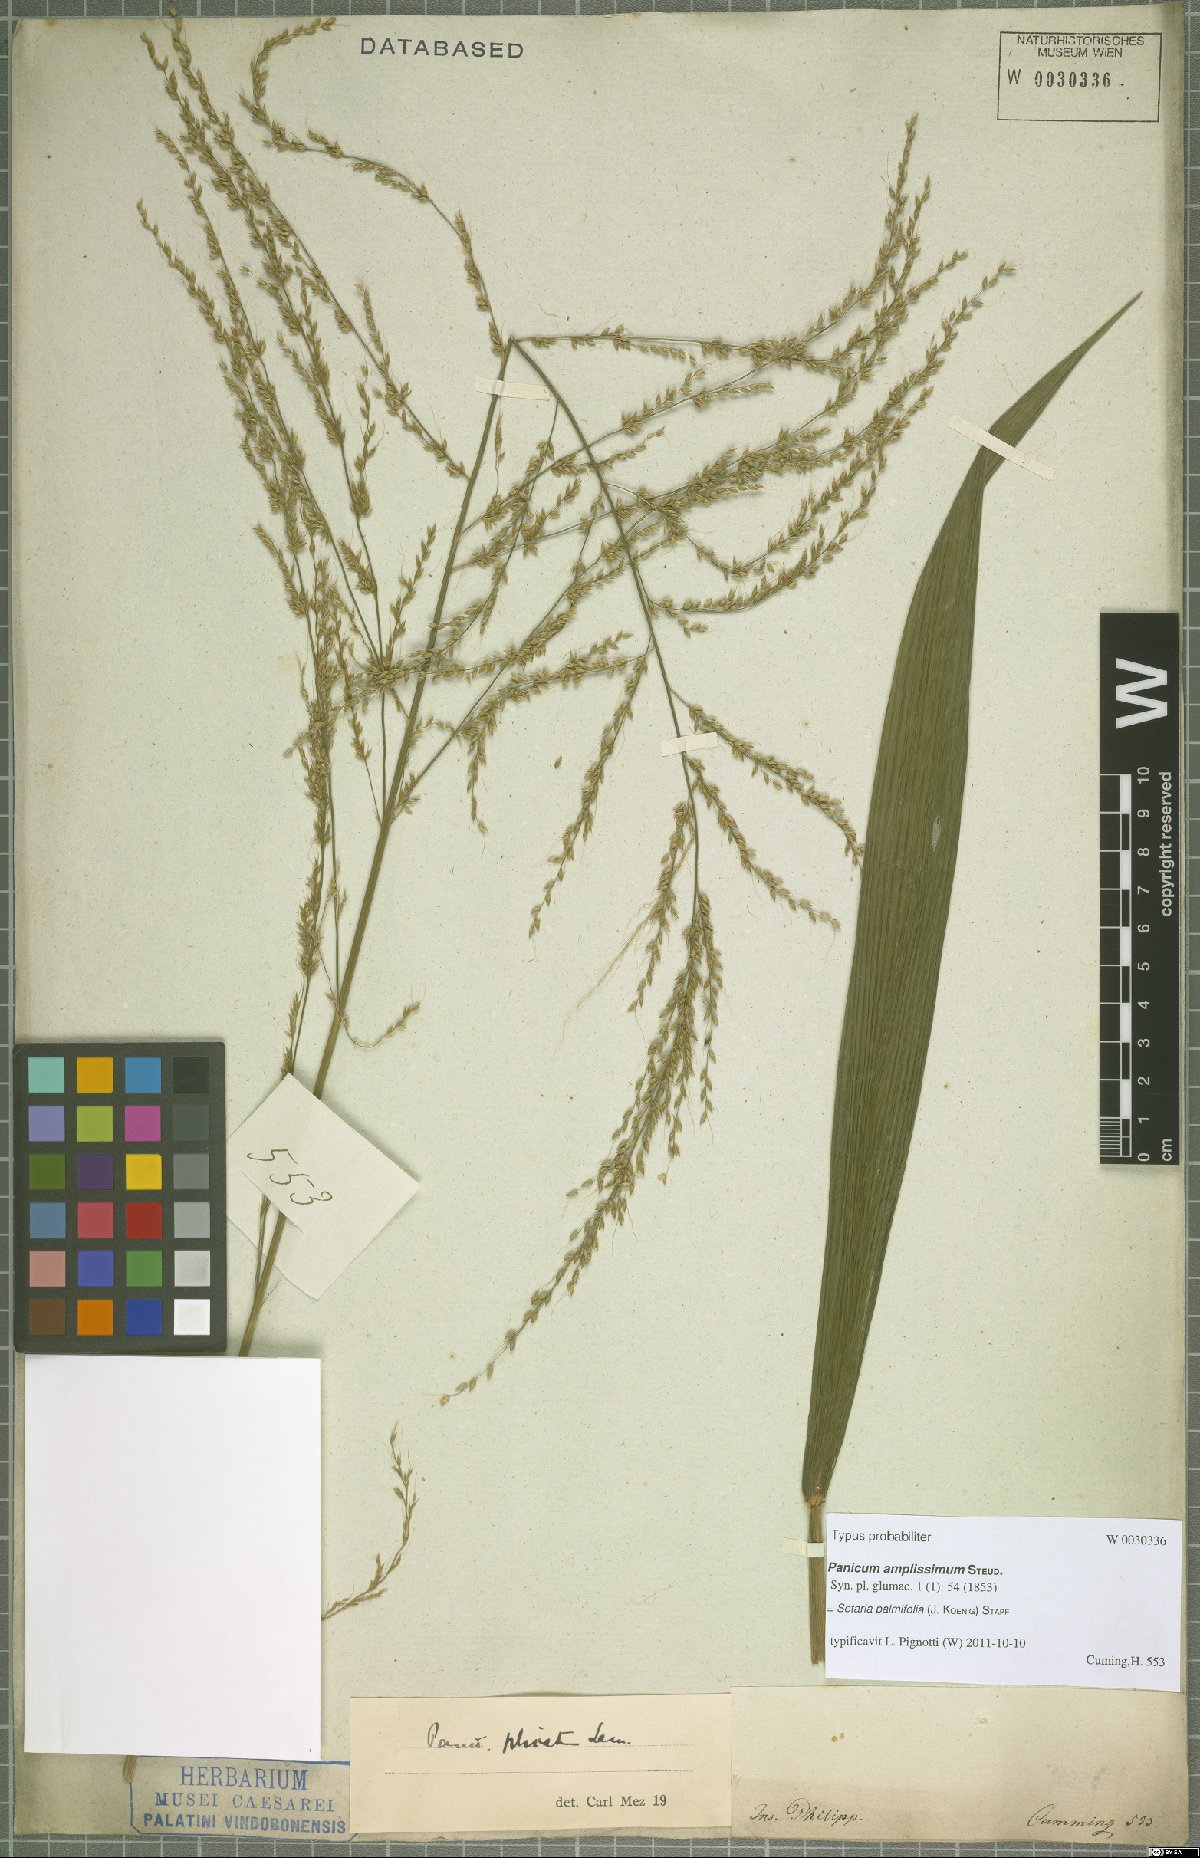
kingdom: Plantae
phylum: Tracheophyta
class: Liliopsida
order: Poales
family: Poaceae
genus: Setaria
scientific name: Setaria palmifolia
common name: Broadleaved bristlegrass
